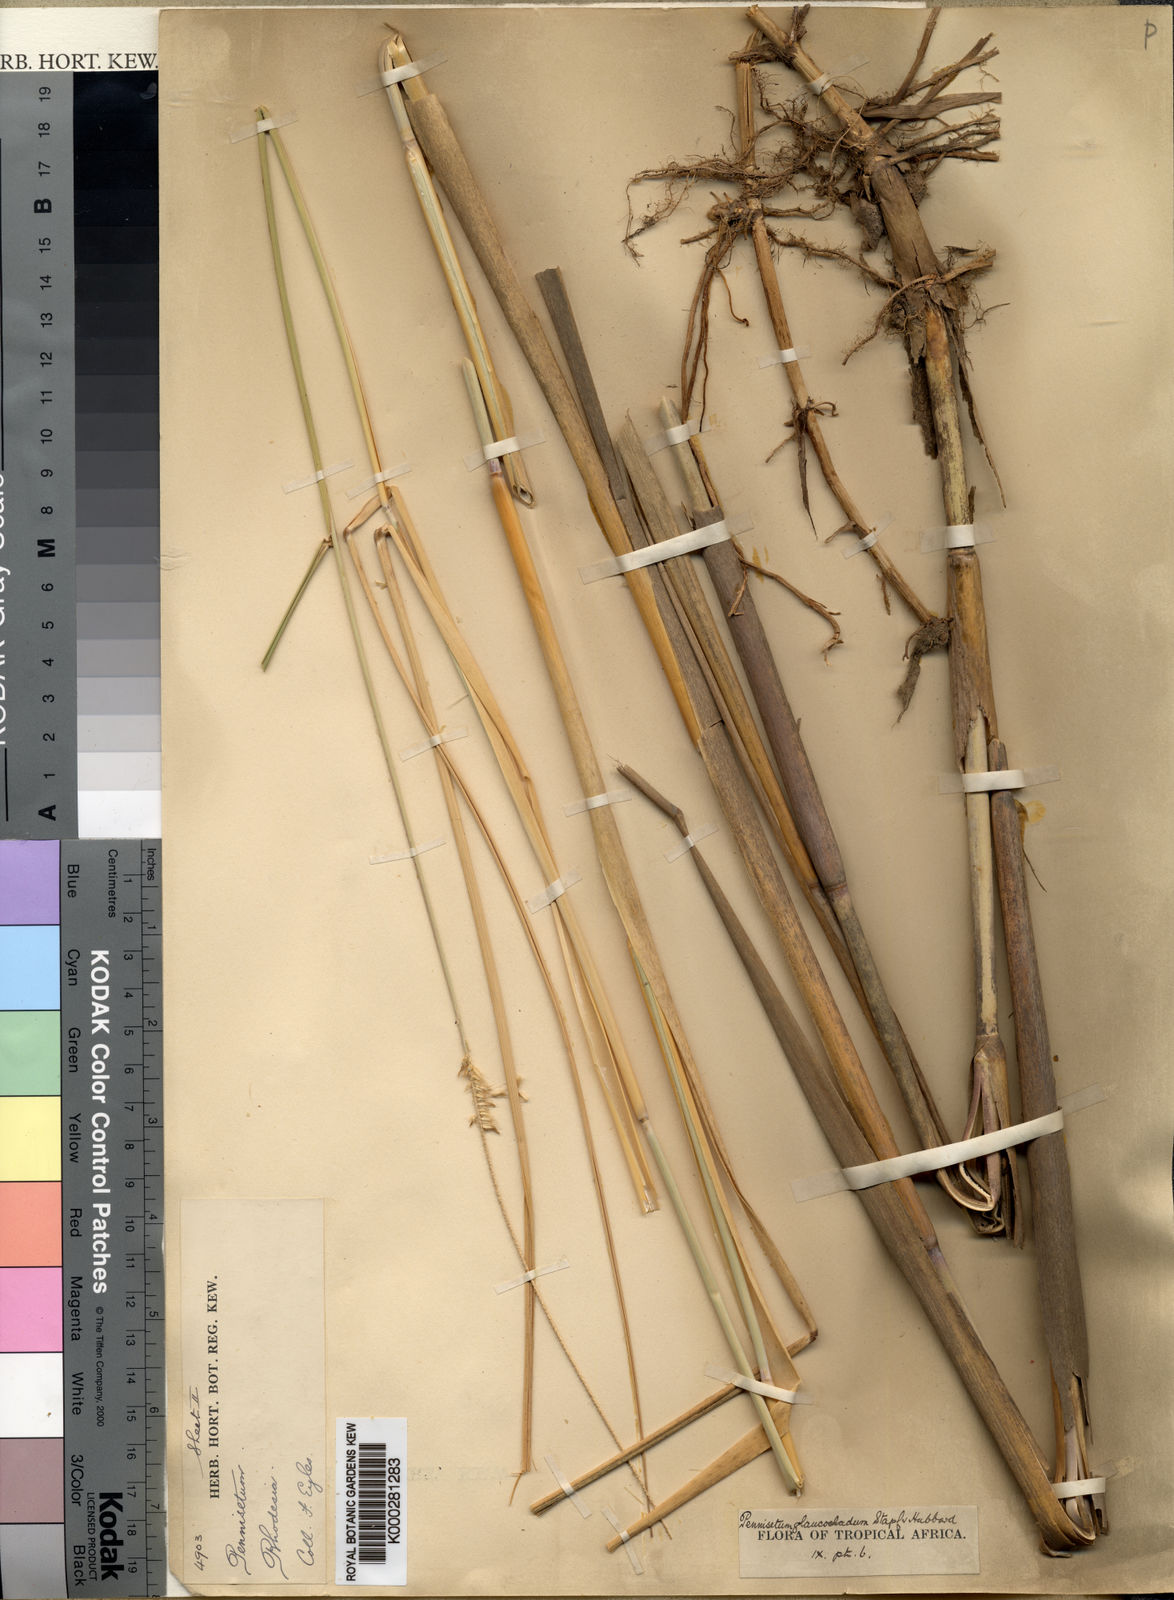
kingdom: Plantae
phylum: Tracheophyta
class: Liliopsida
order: Poales
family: Poaceae
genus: Cenchrus
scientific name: Cenchrus caudatus
